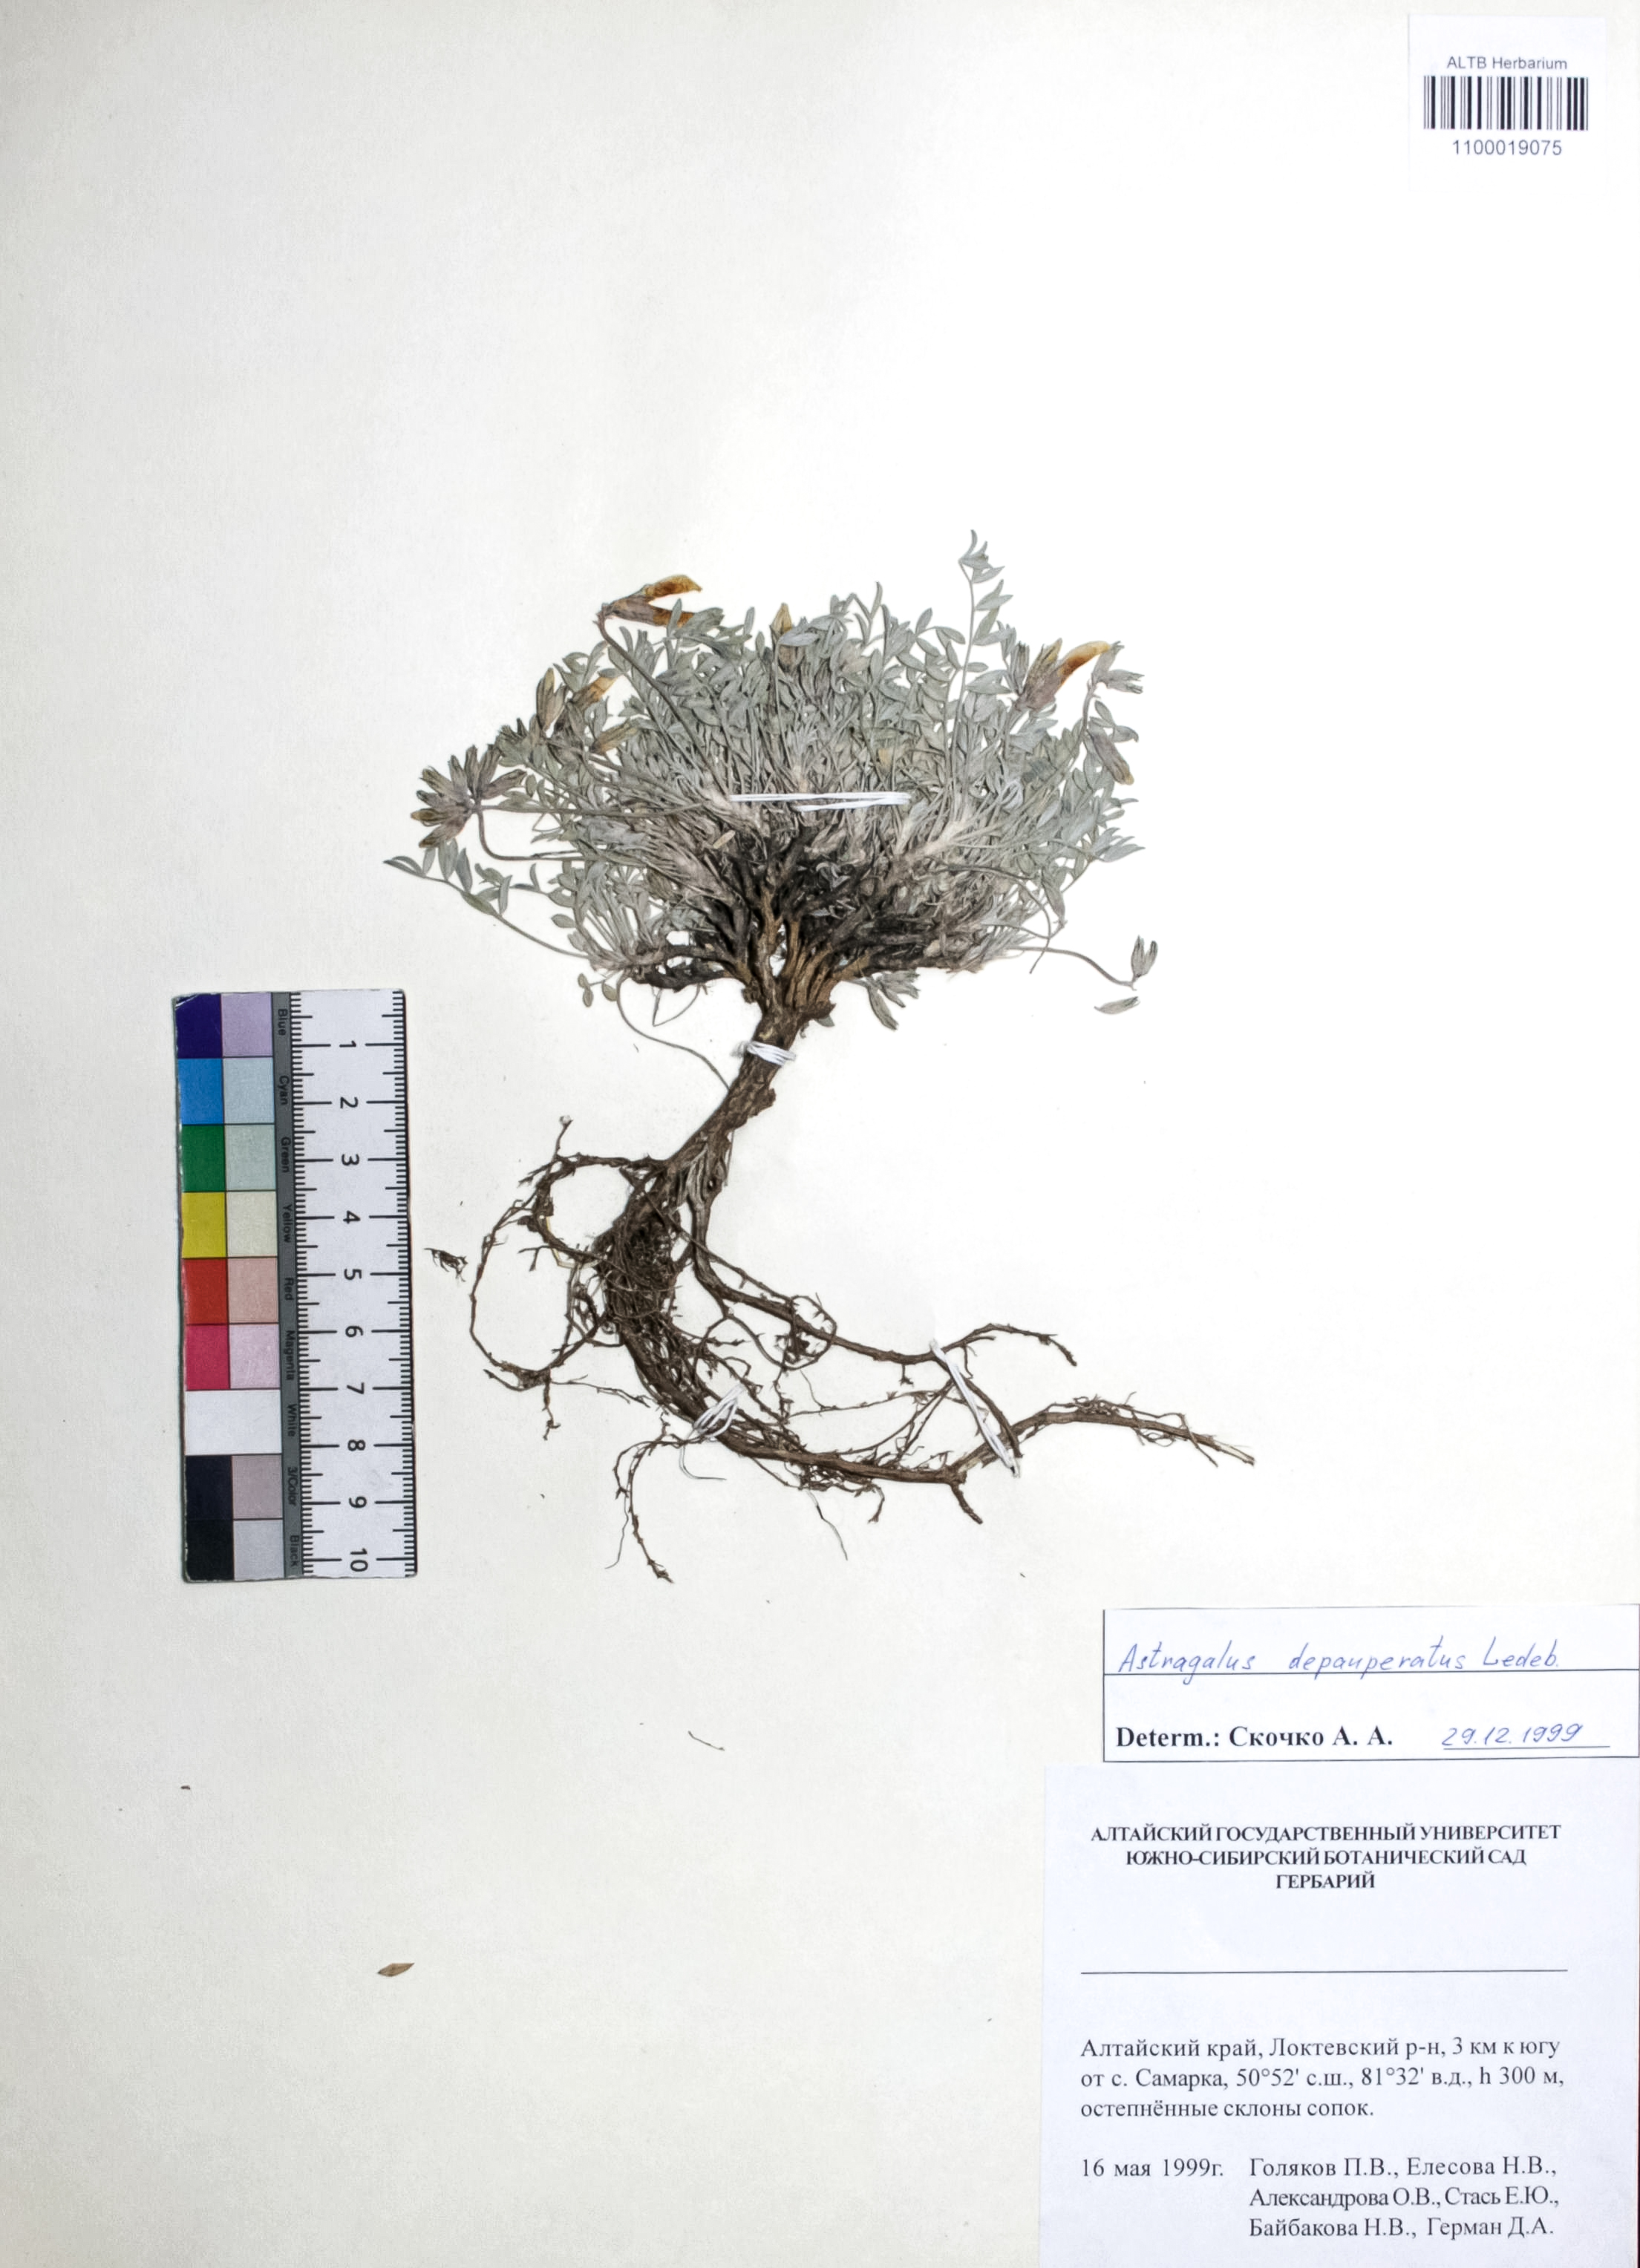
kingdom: Plantae
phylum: Tracheophyta
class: Magnoliopsida
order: Fabales
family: Fabaceae
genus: Astragalus
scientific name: Astragalus depauperatus
